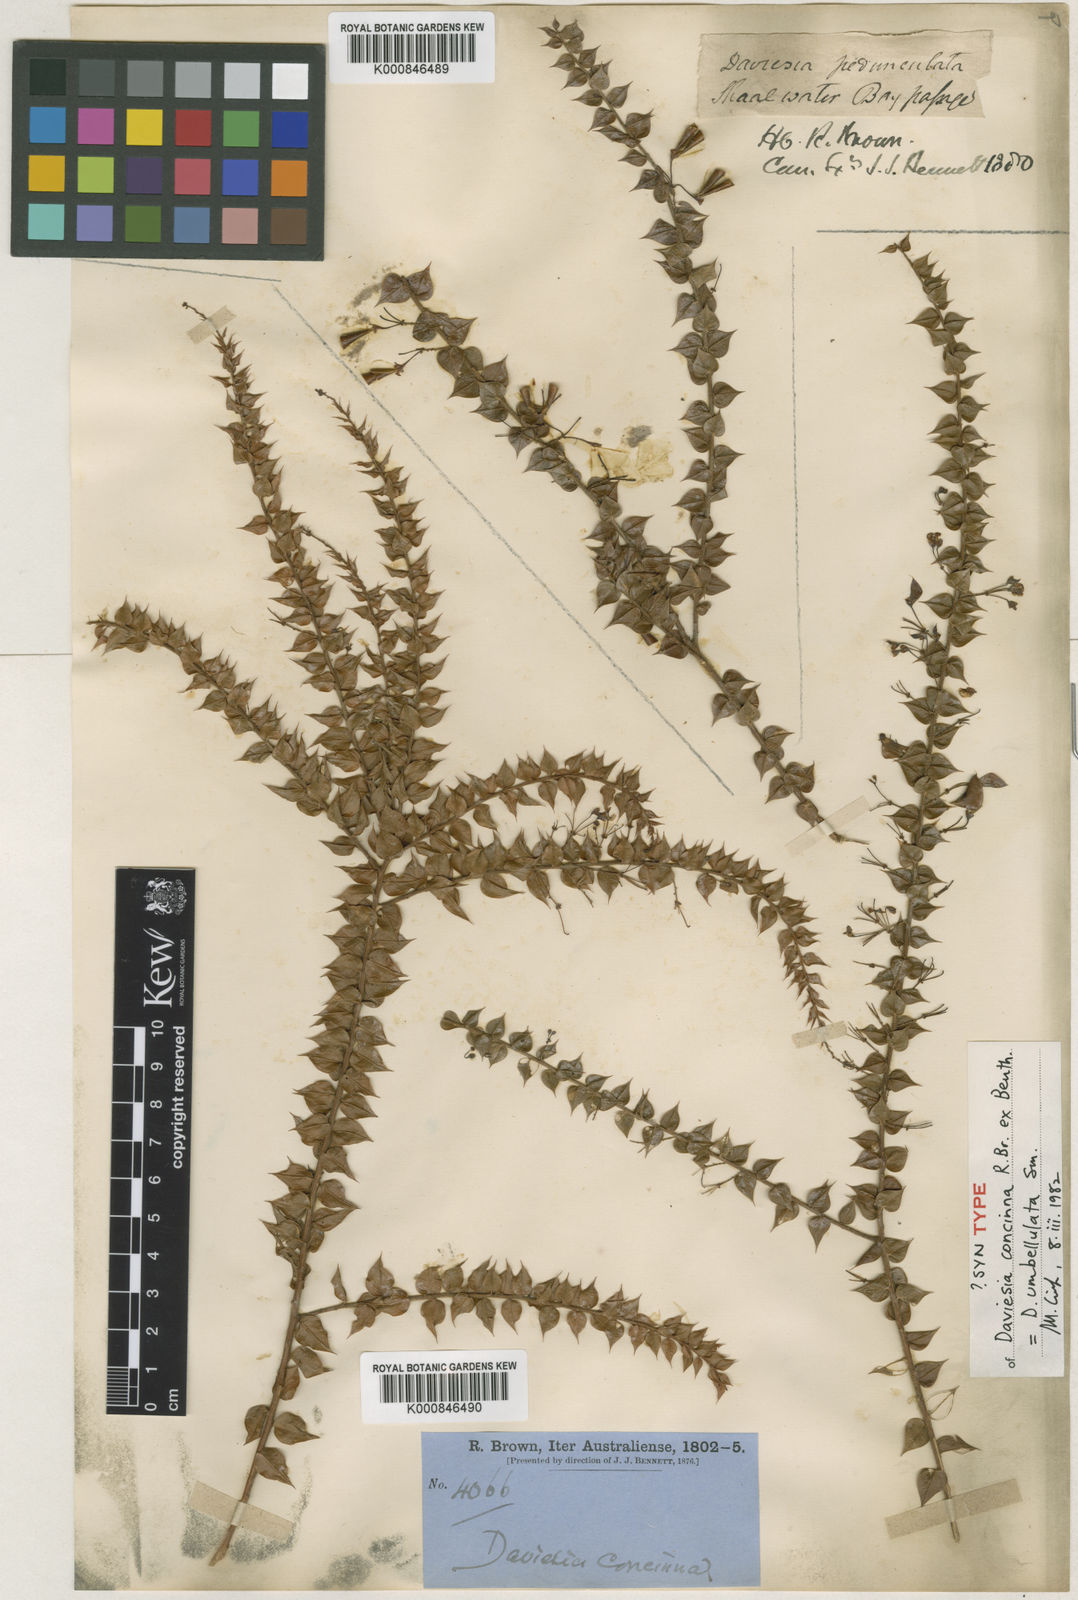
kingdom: Plantae
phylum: Tracheophyta
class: Magnoliopsida
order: Fabales
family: Fabaceae
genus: Daviesia
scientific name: Daviesia umbellulata
